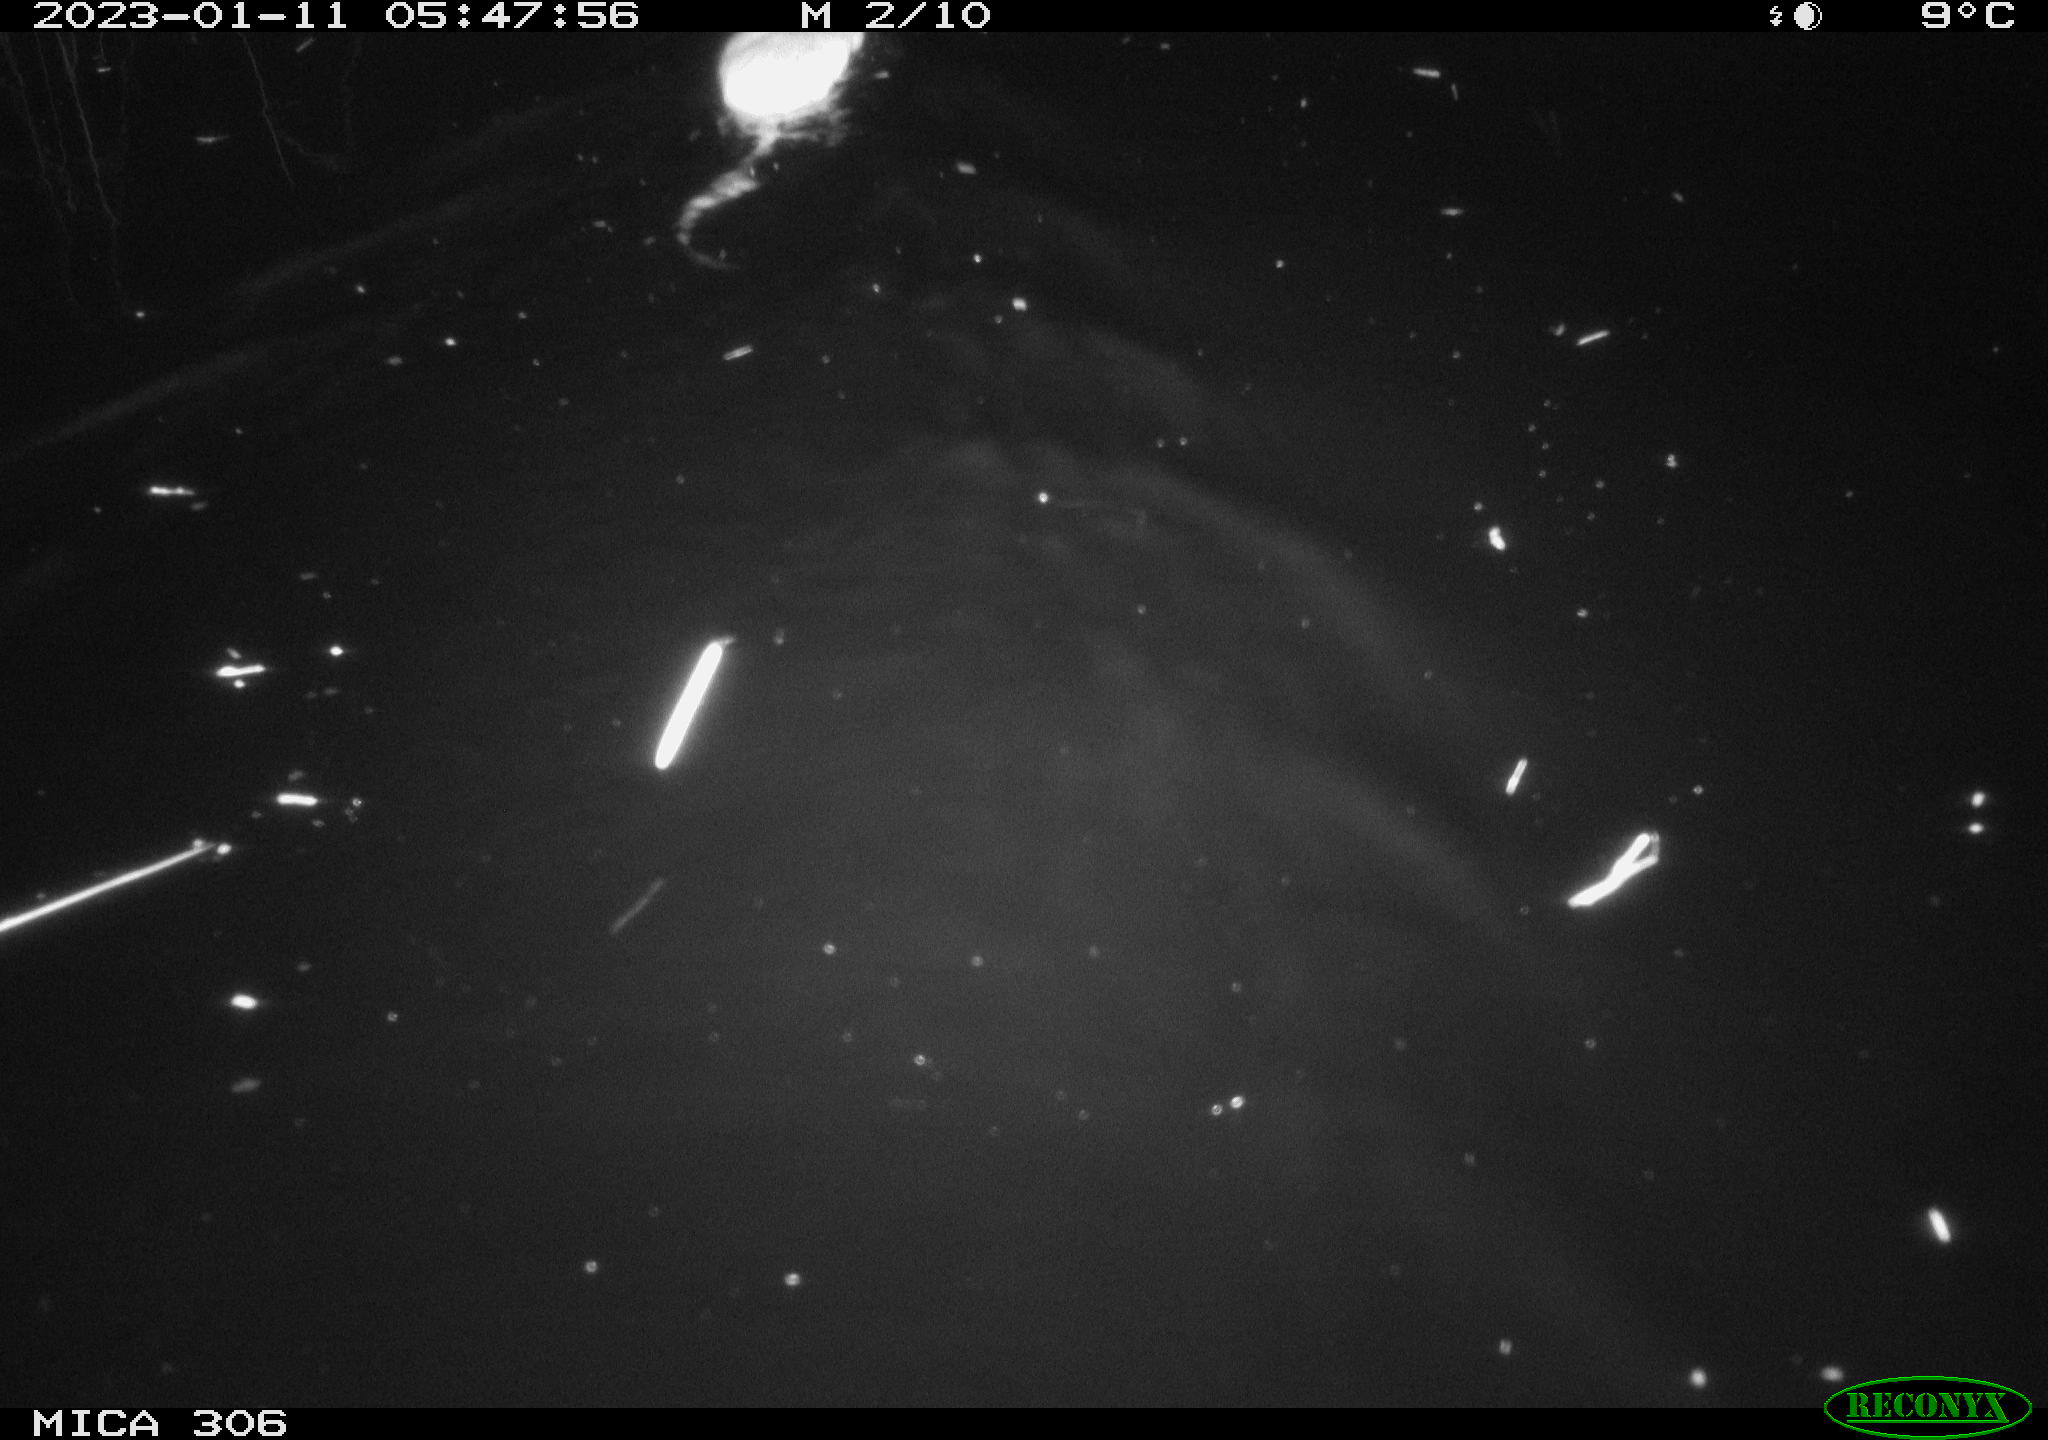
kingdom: Animalia
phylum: Chordata
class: Mammalia
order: Rodentia
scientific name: Rodentia
